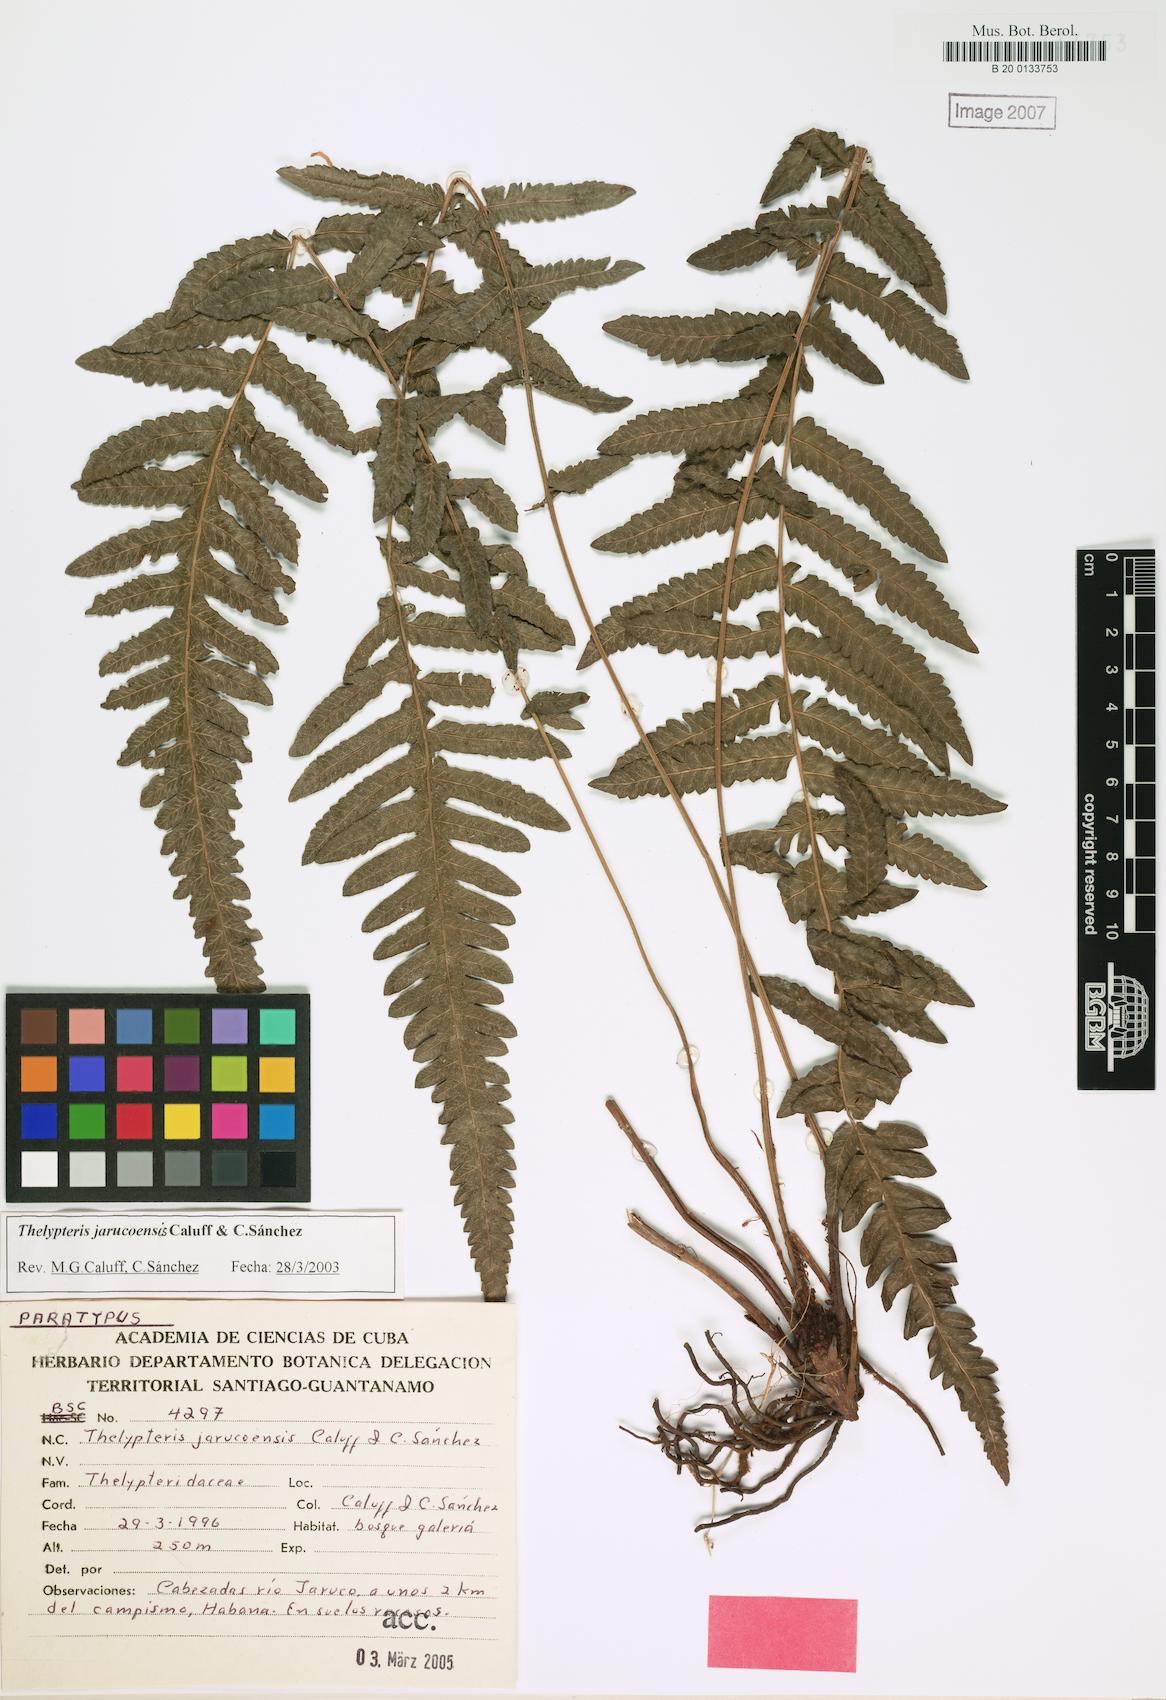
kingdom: Plantae
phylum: Tracheophyta
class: Polypodiopsida
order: Polypodiales
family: Thelypteridaceae
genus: Goniopteris
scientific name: Goniopteris jarucoensis
